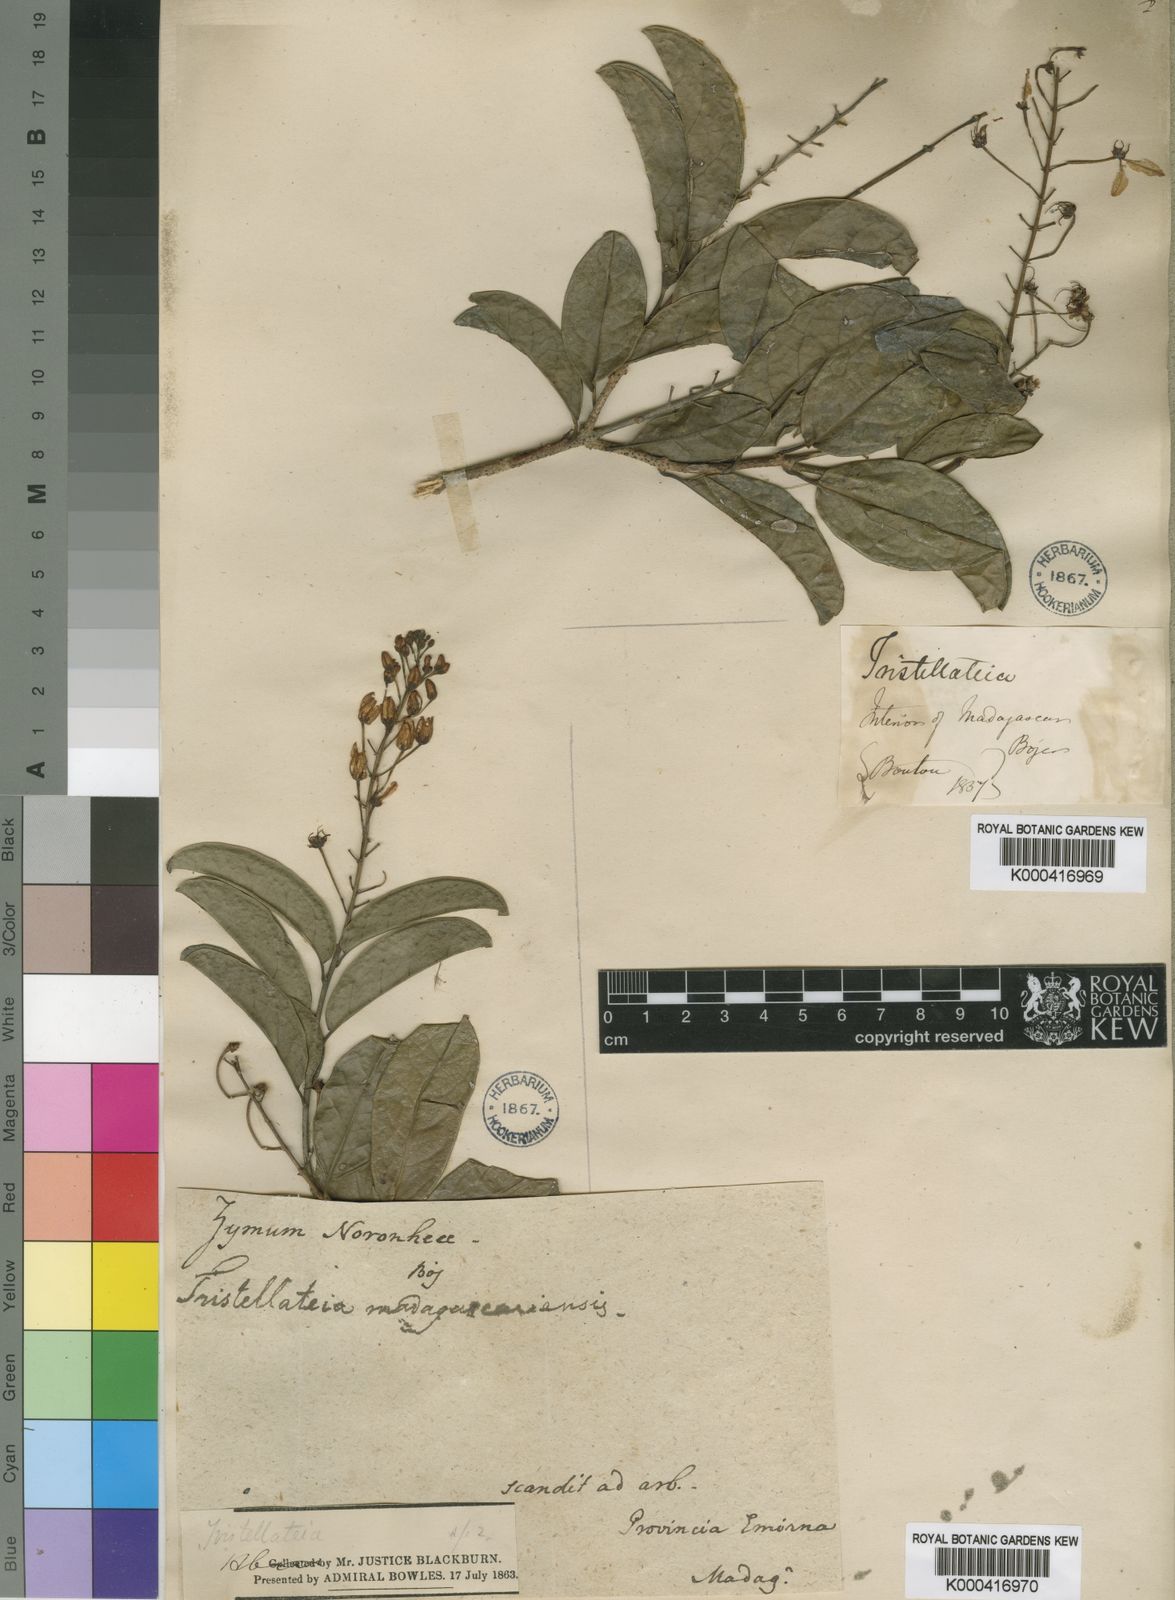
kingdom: Plantae
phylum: Tracheophyta
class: Magnoliopsida
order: Malpighiales
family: Malpighiaceae
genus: Tristellateia
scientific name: Tristellateia madagascariensis
